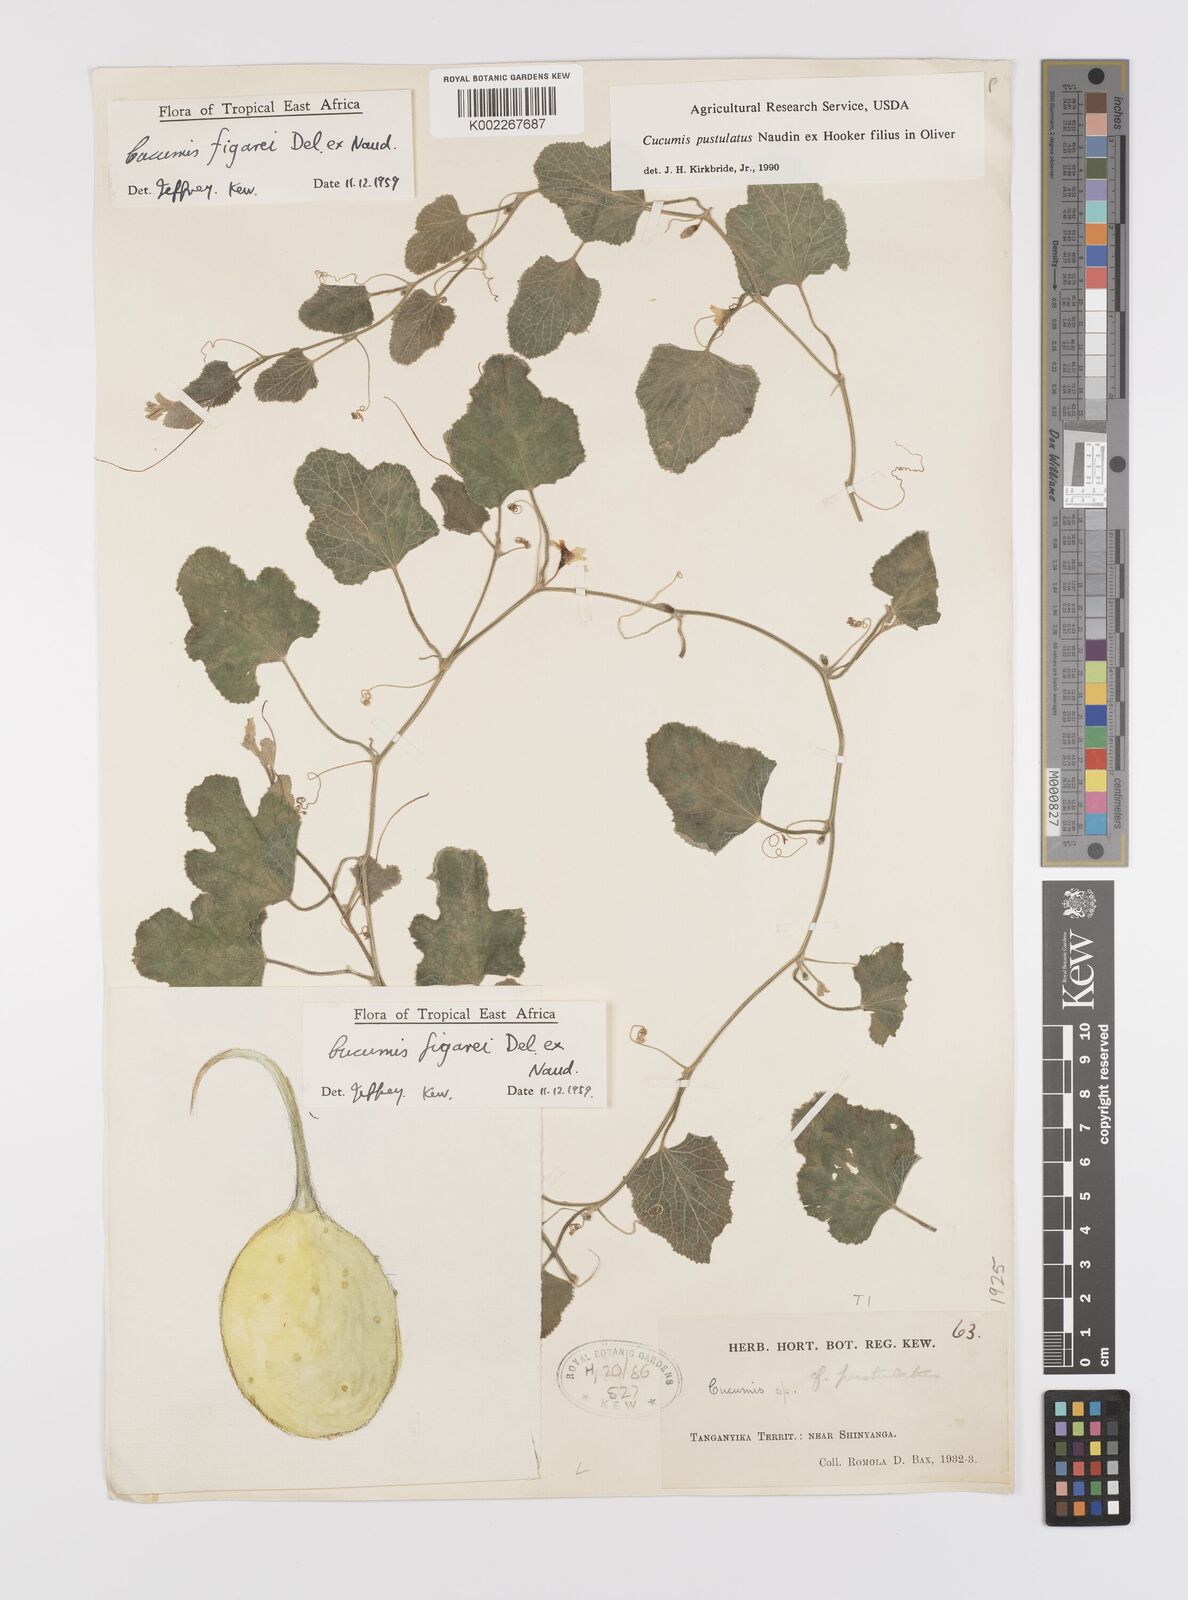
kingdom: Plantae
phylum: Tracheophyta
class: Magnoliopsida
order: Cucurbitales
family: Cucurbitaceae
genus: Cucumis
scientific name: Cucumis
